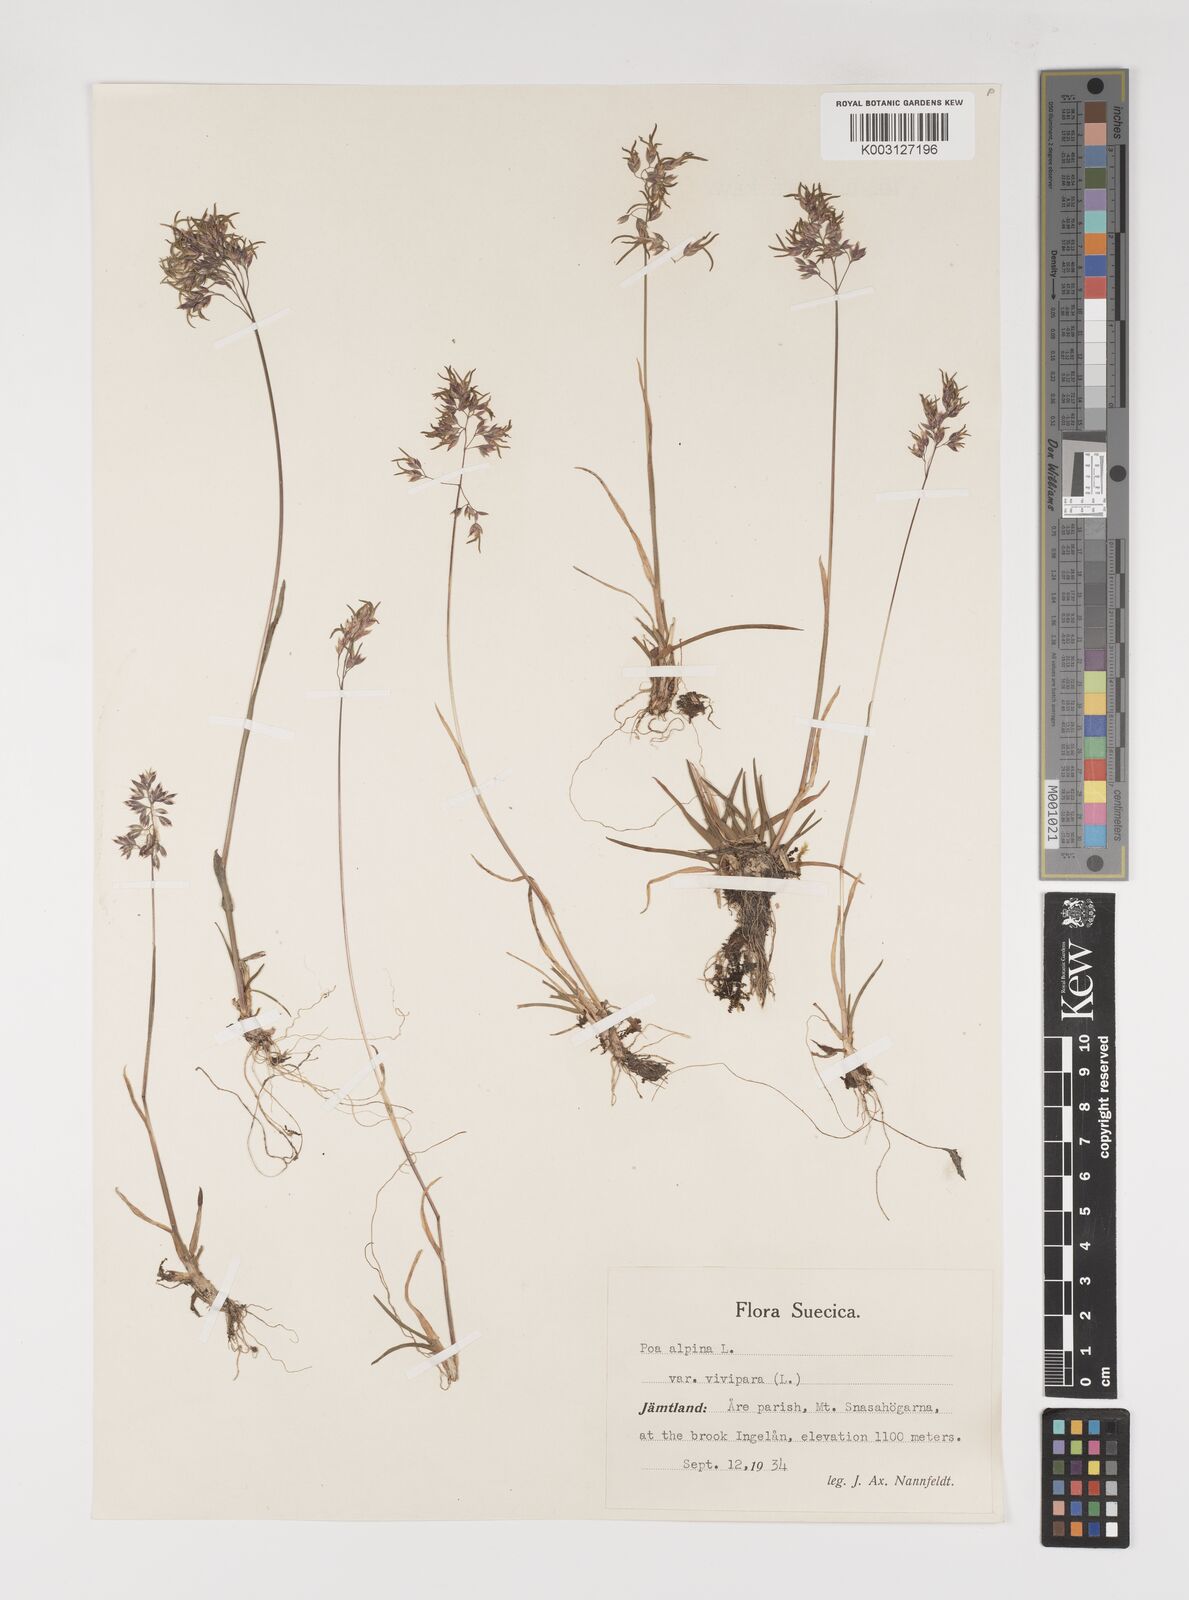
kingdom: Plantae
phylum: Tracheophyta
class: Liliopsida
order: Poales
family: Poaceae
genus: Poa
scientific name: Poa alpina
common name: Alpine bluegrass
